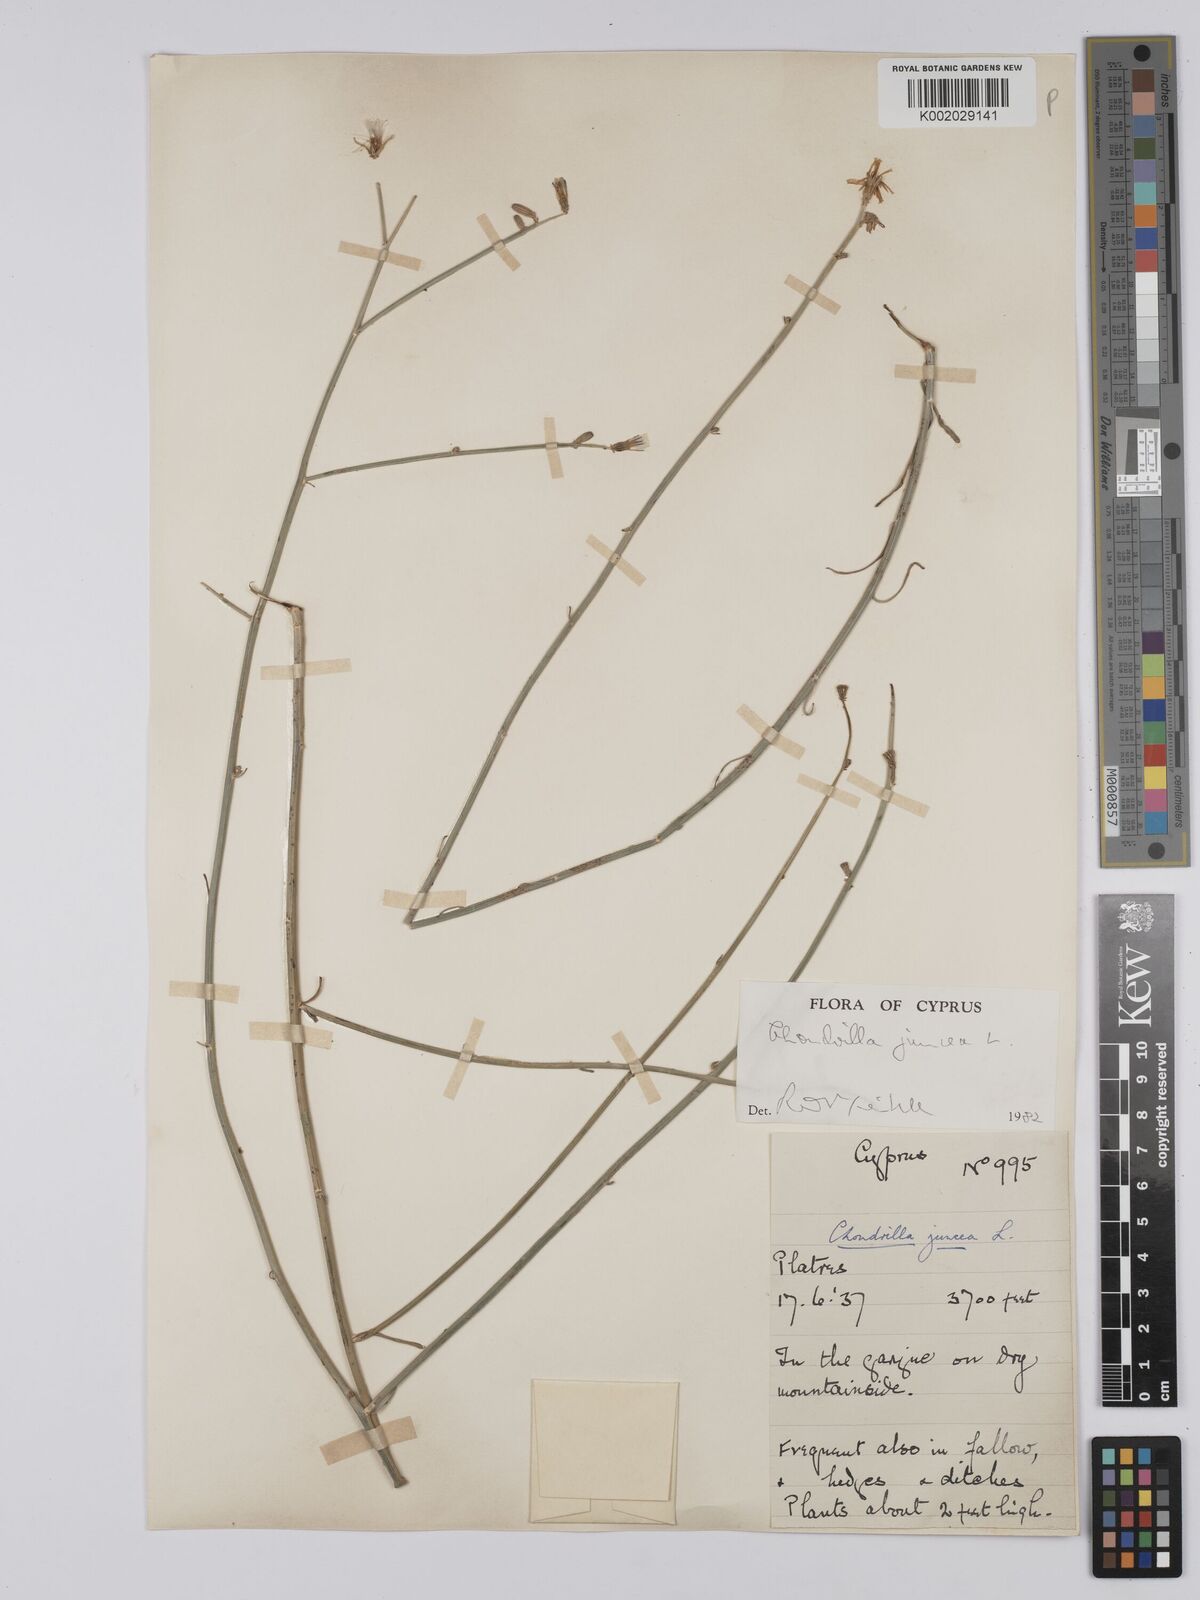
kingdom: Plantae
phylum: Tracheophyta
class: Magnoliopsida
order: Asterales
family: Asteraceae
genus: Chondrilla
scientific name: Chondrilla juncea
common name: Skeleton weed
